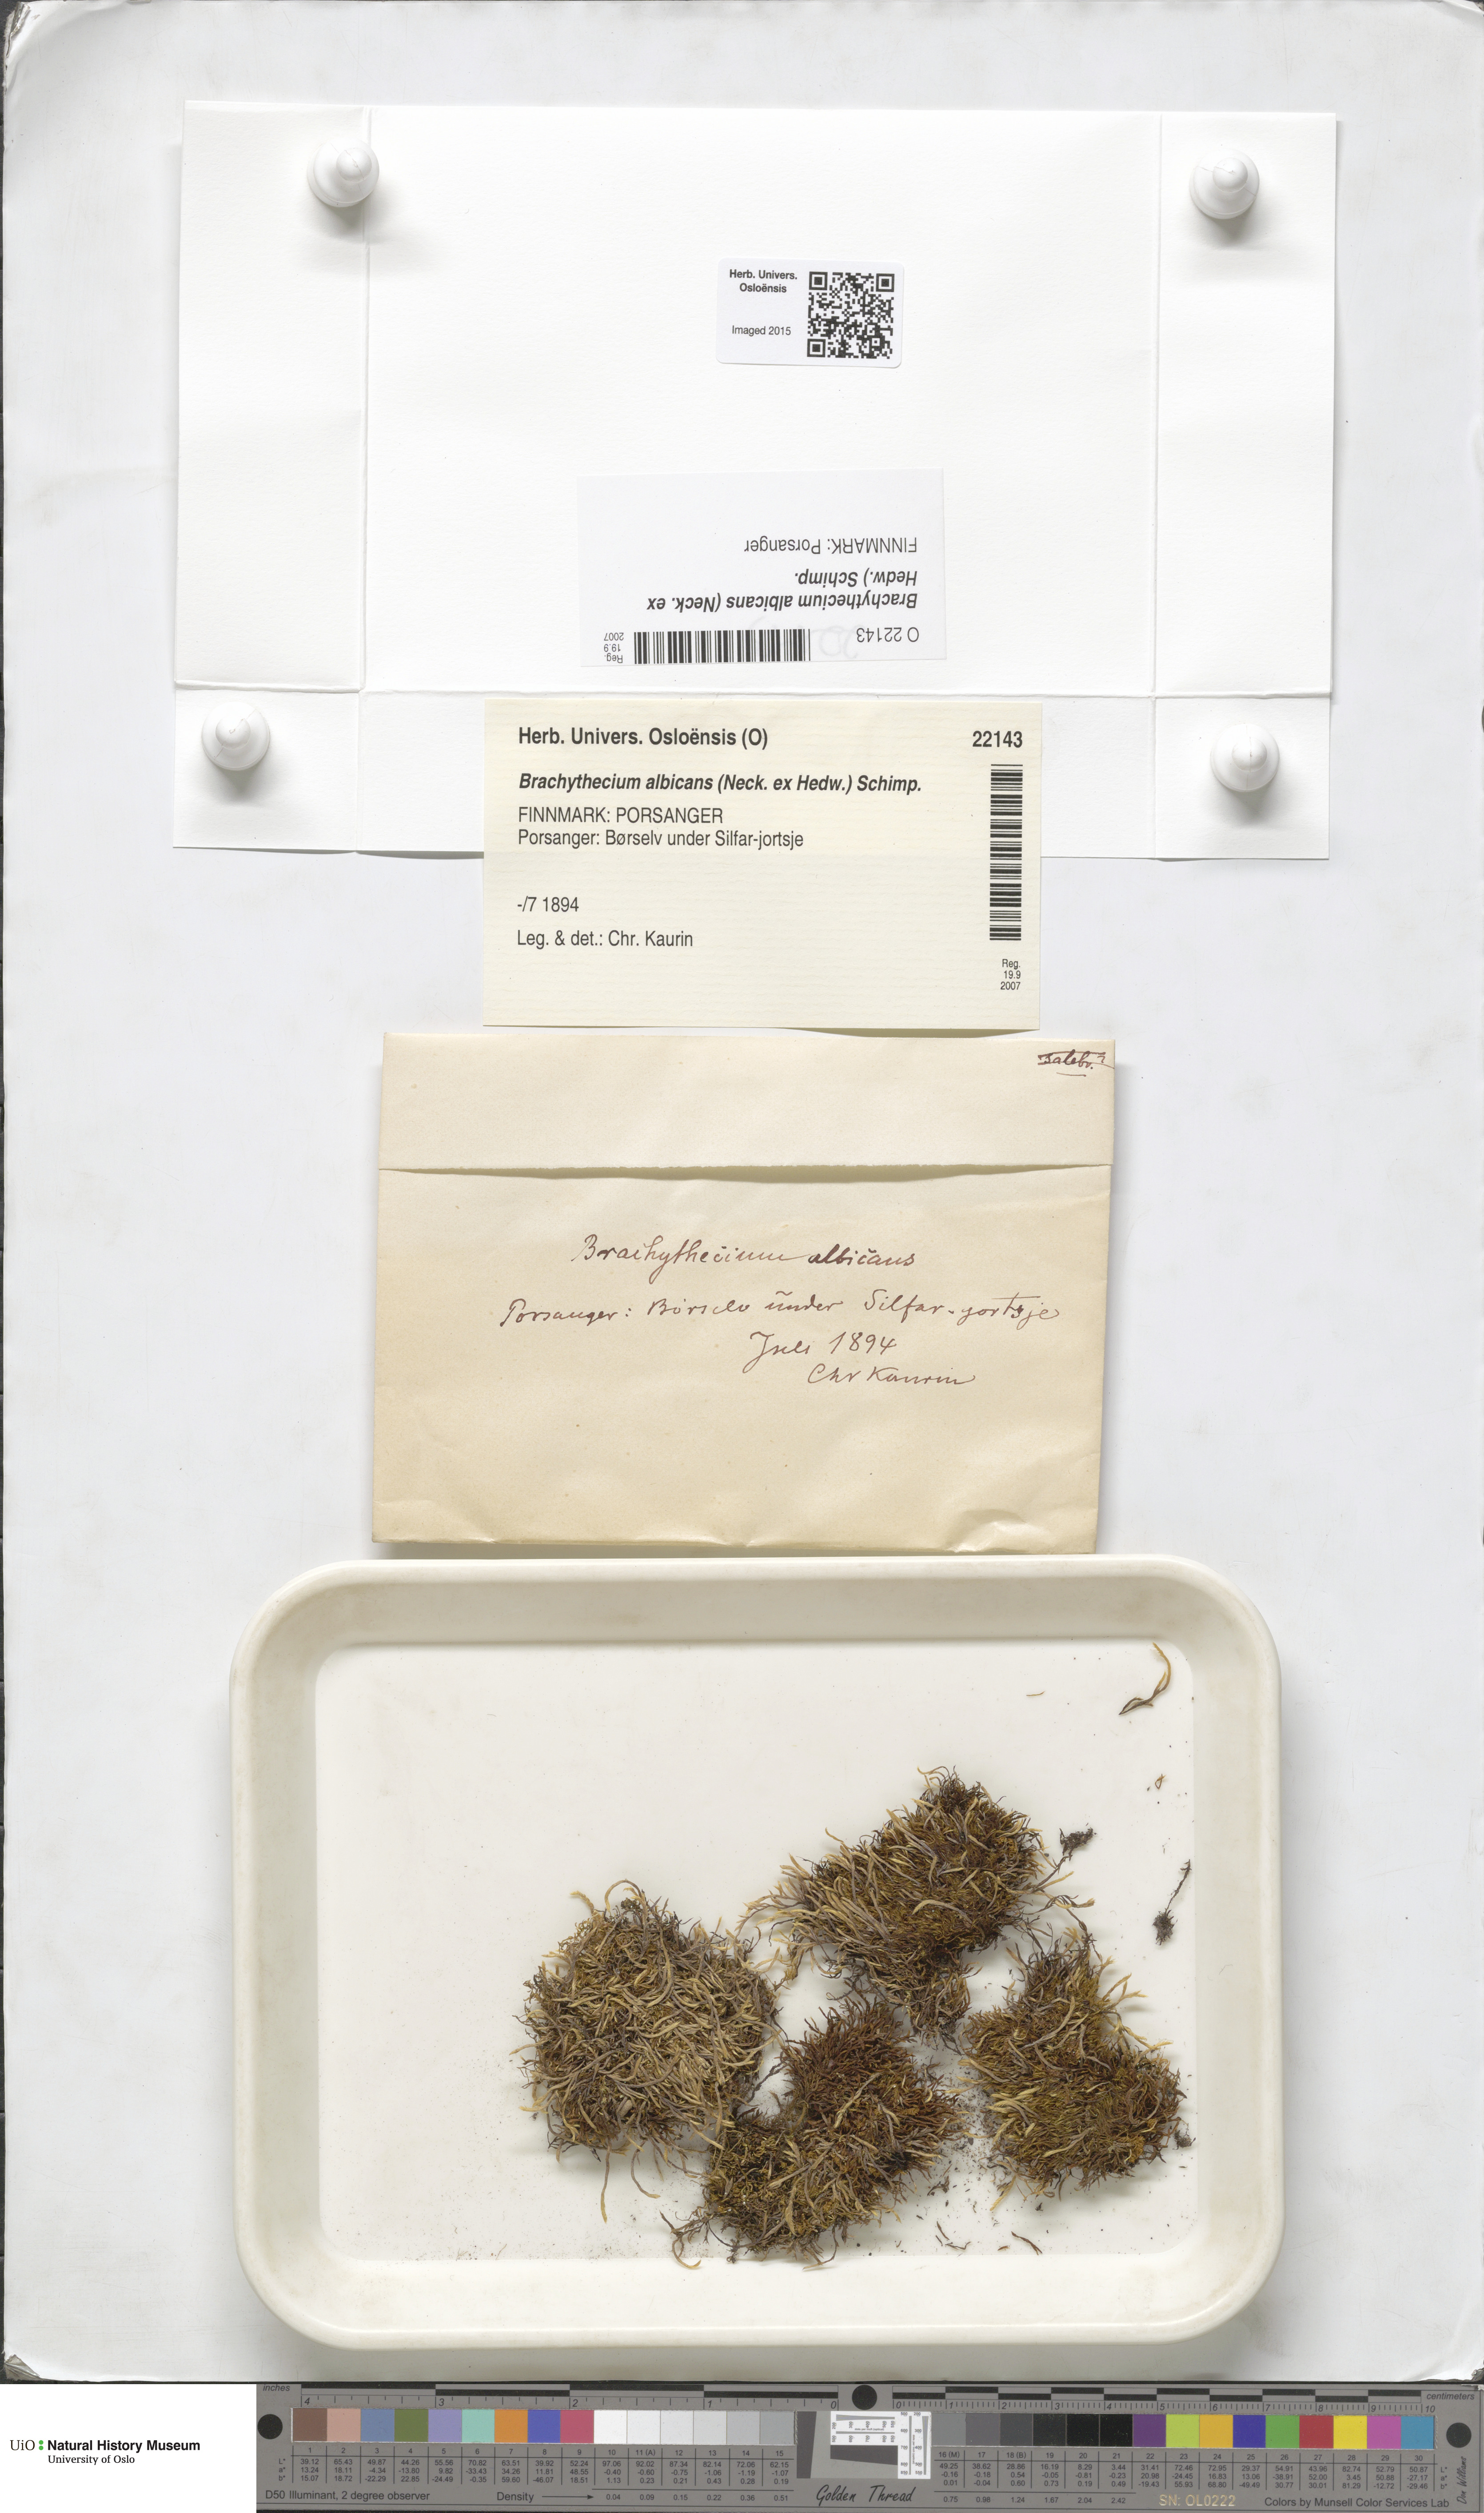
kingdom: Plantae
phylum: Bryophyta
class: Bryopsida
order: Hypnales
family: Brachytheciaceae
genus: Brachythecium
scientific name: Brachythecium albicans
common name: Whitish ragged moss
